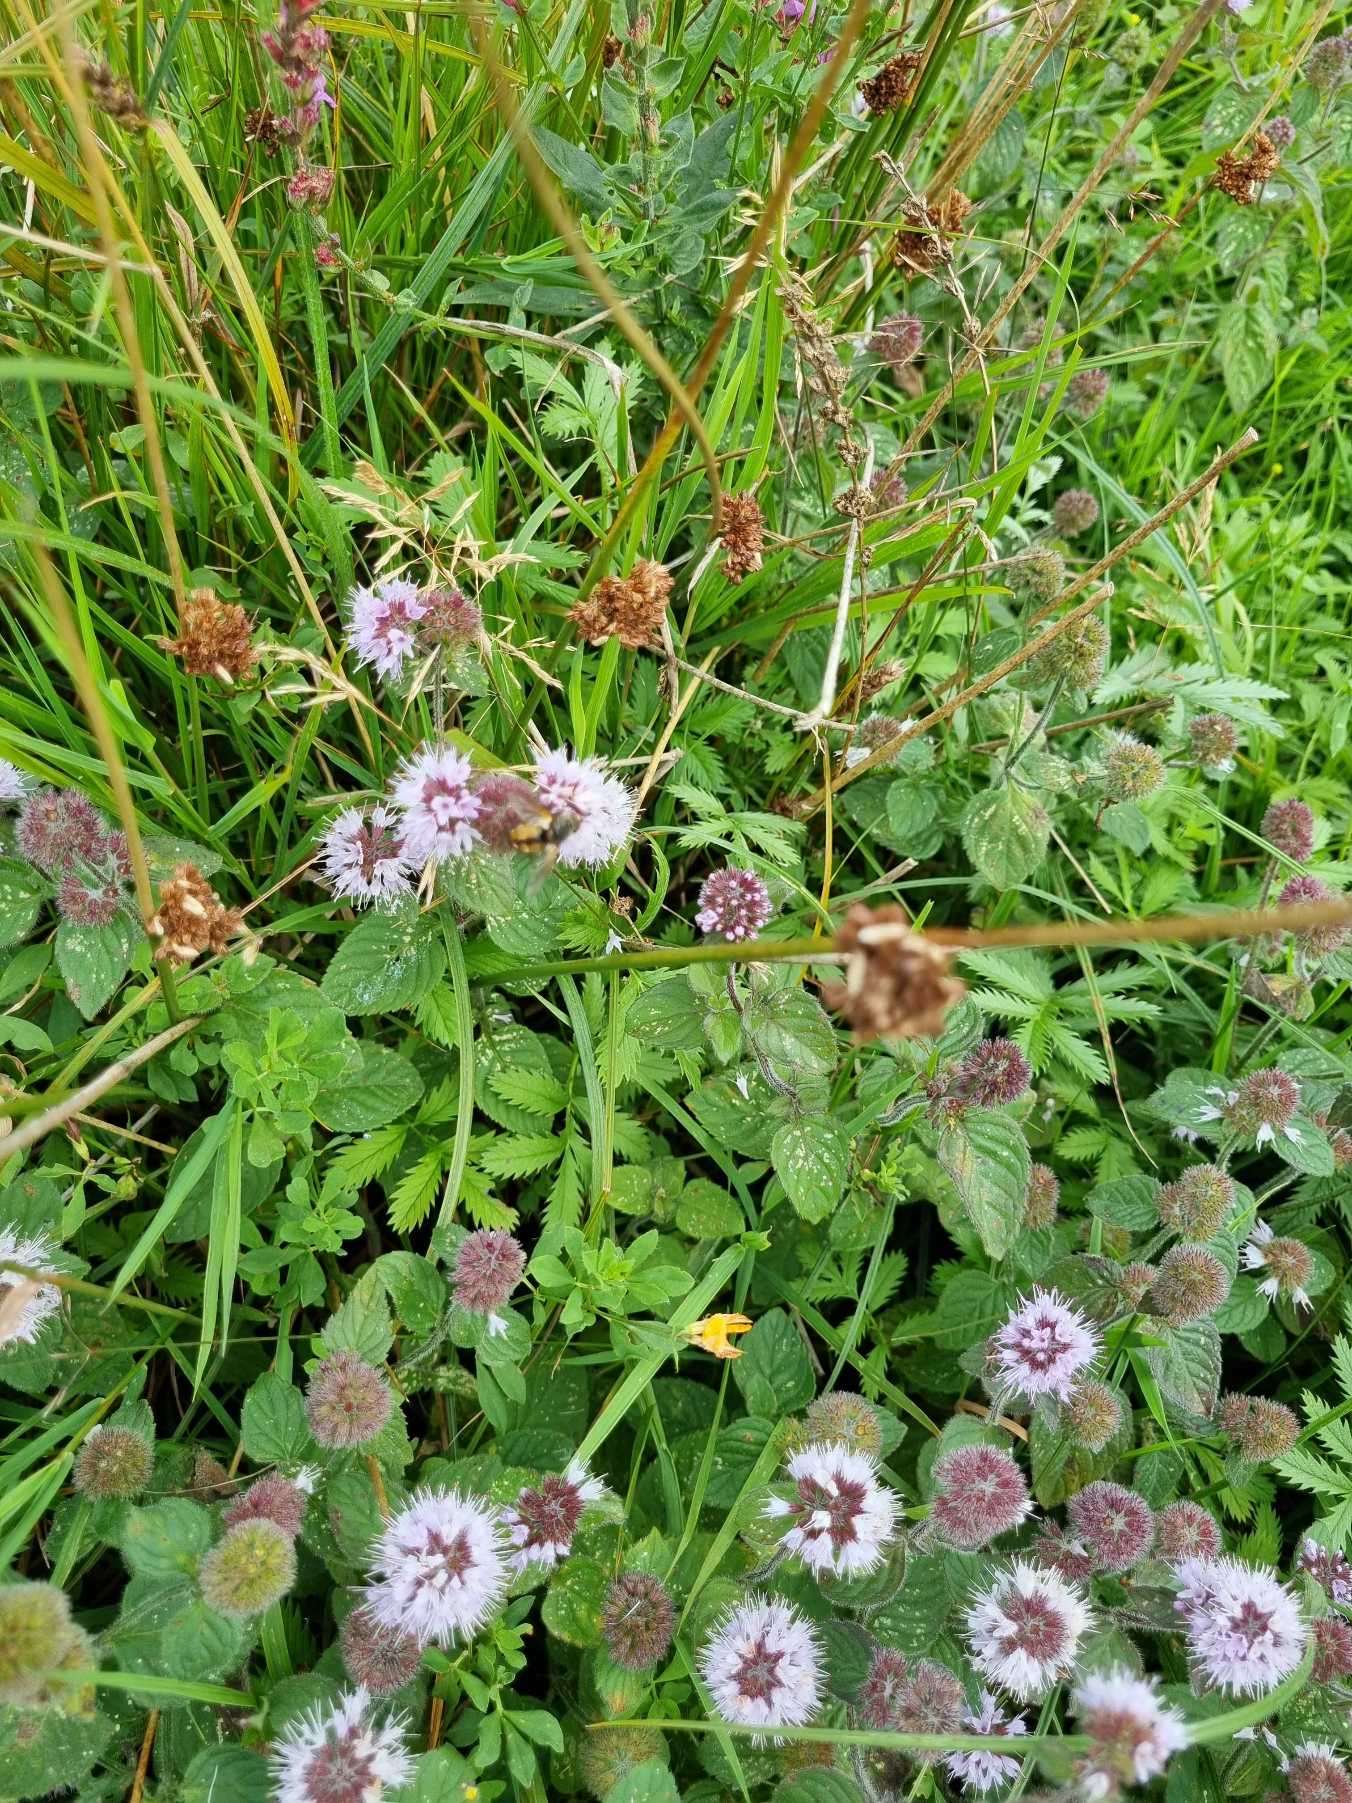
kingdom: Plantae
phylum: Tracheophyta
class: Magnoliopsida
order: Lamiales
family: Lamiaceae
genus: Mentha
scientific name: Mentha aquatica
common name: Vand-mynte
